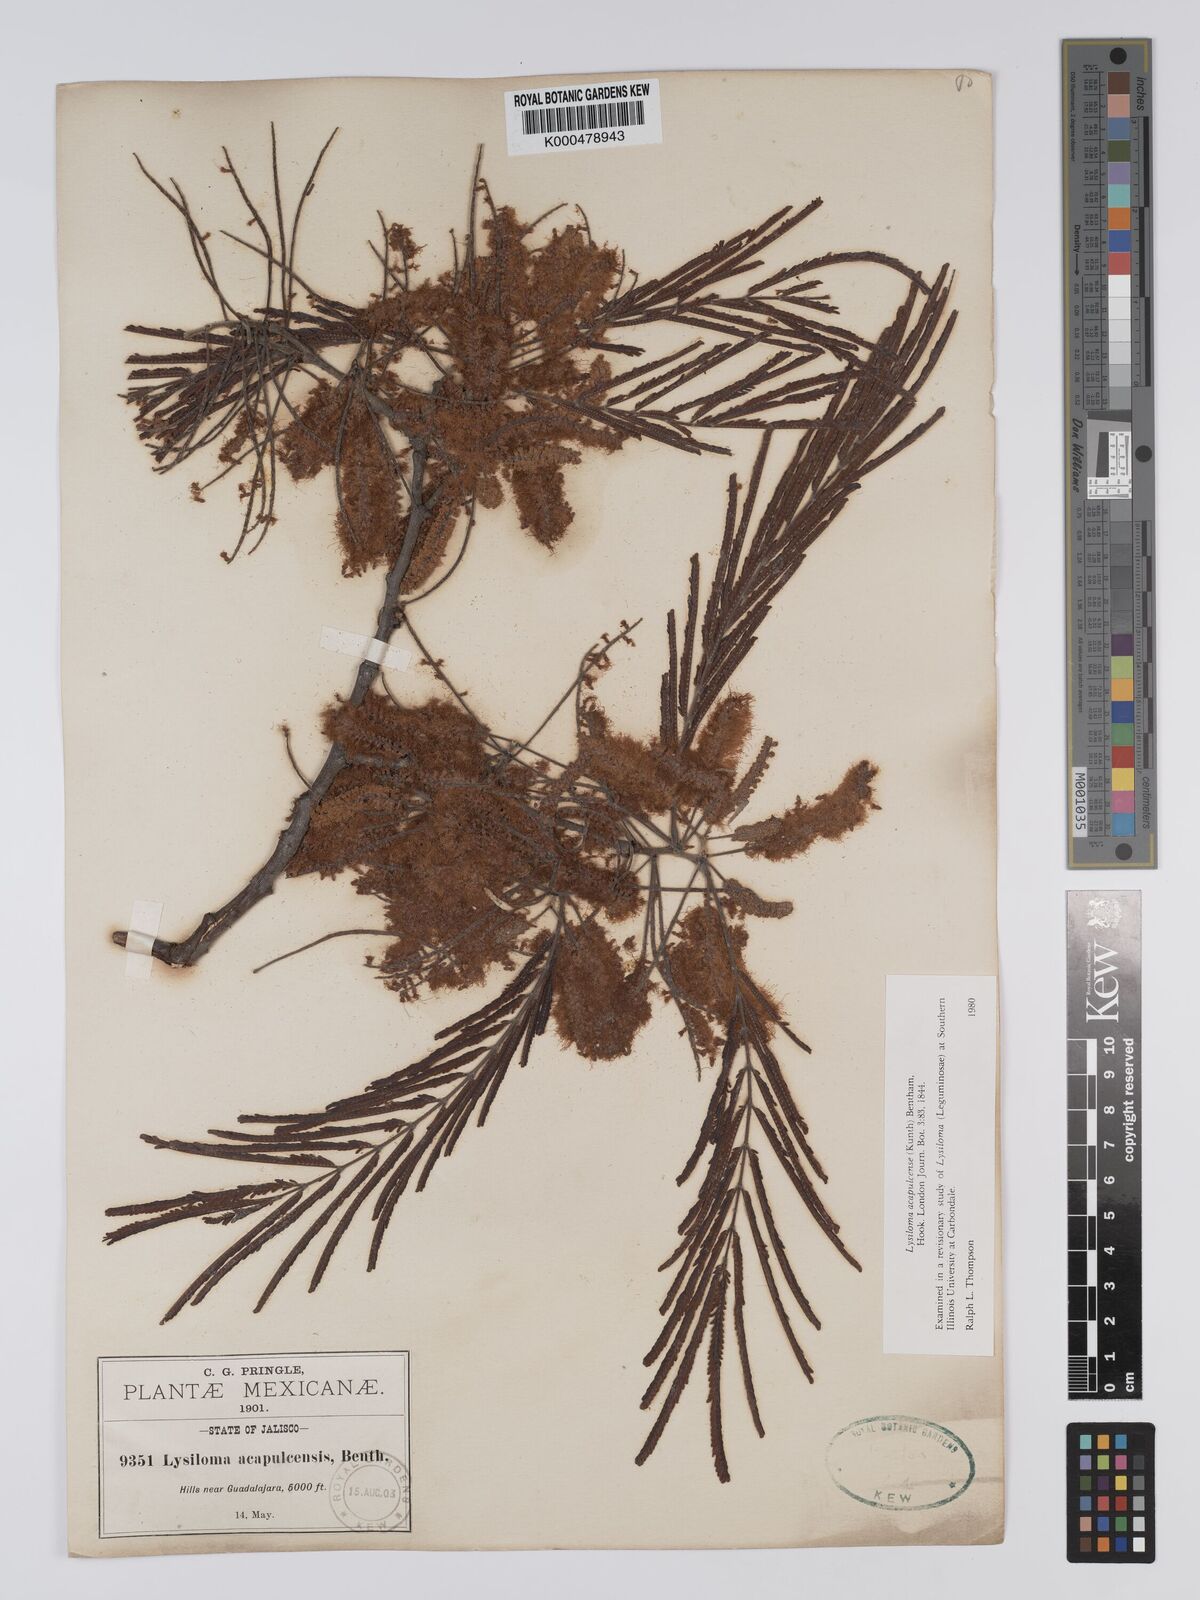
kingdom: Plantae
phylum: Tracheophyta
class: Magnoliopsida
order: Fabales
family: Fabaceae
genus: Lysiloma
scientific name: Lysiloma
